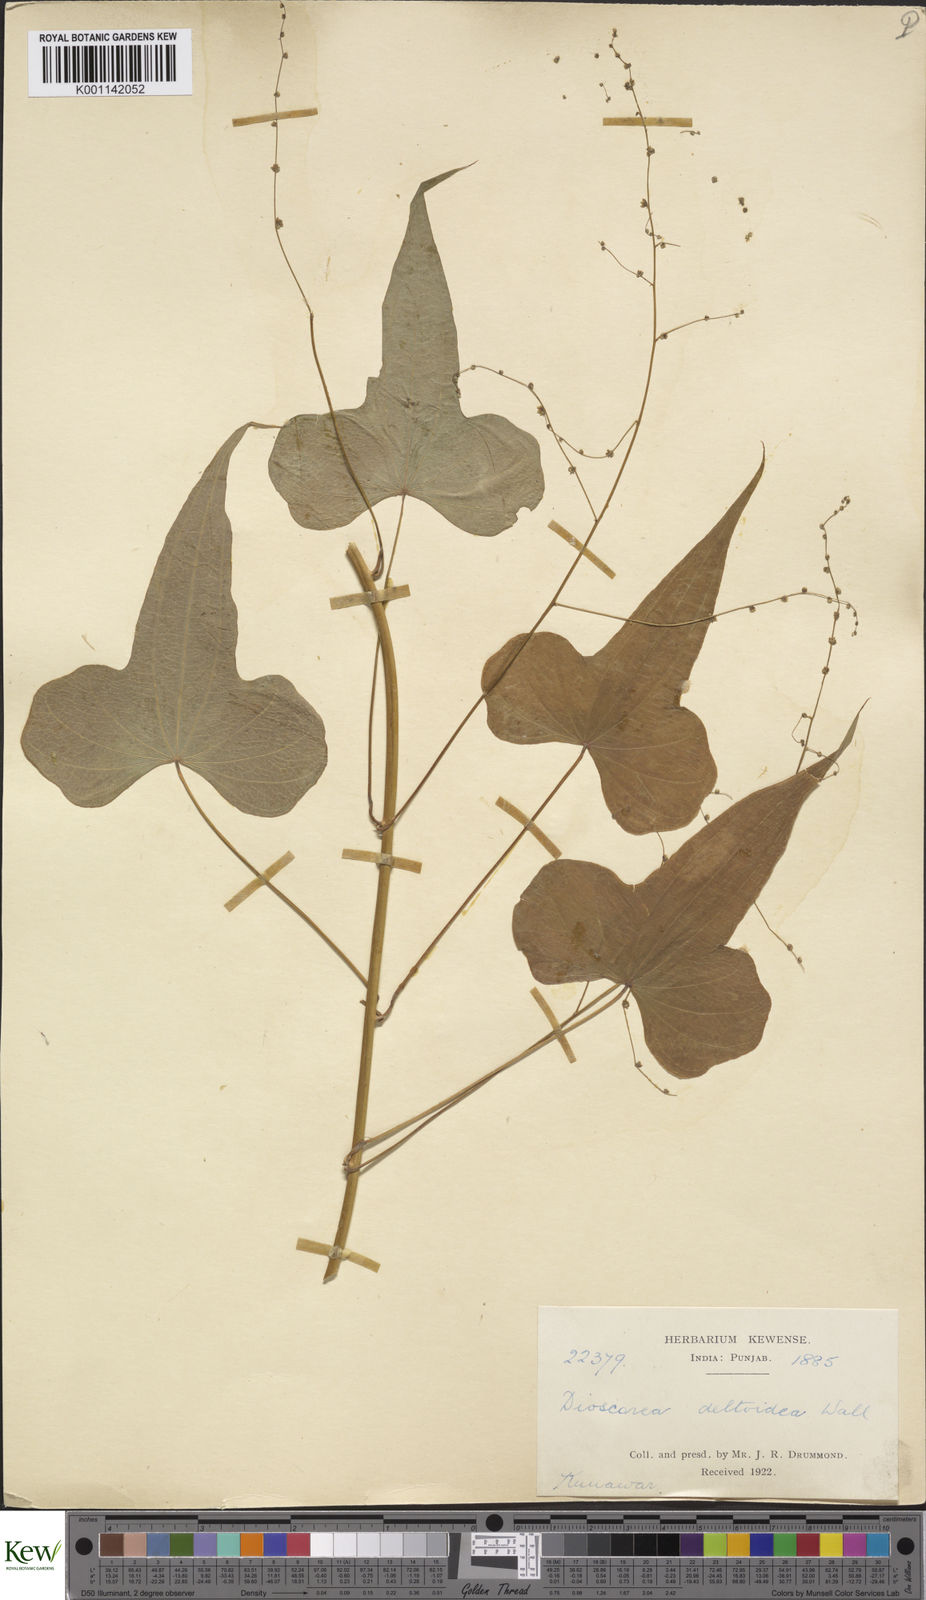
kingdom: Plantae
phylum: Tracheophyta
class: Liliopsida
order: Dioscoreales
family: Dioscoreaceae
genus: Dioscorea
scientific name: Dioscorea deltoidea
